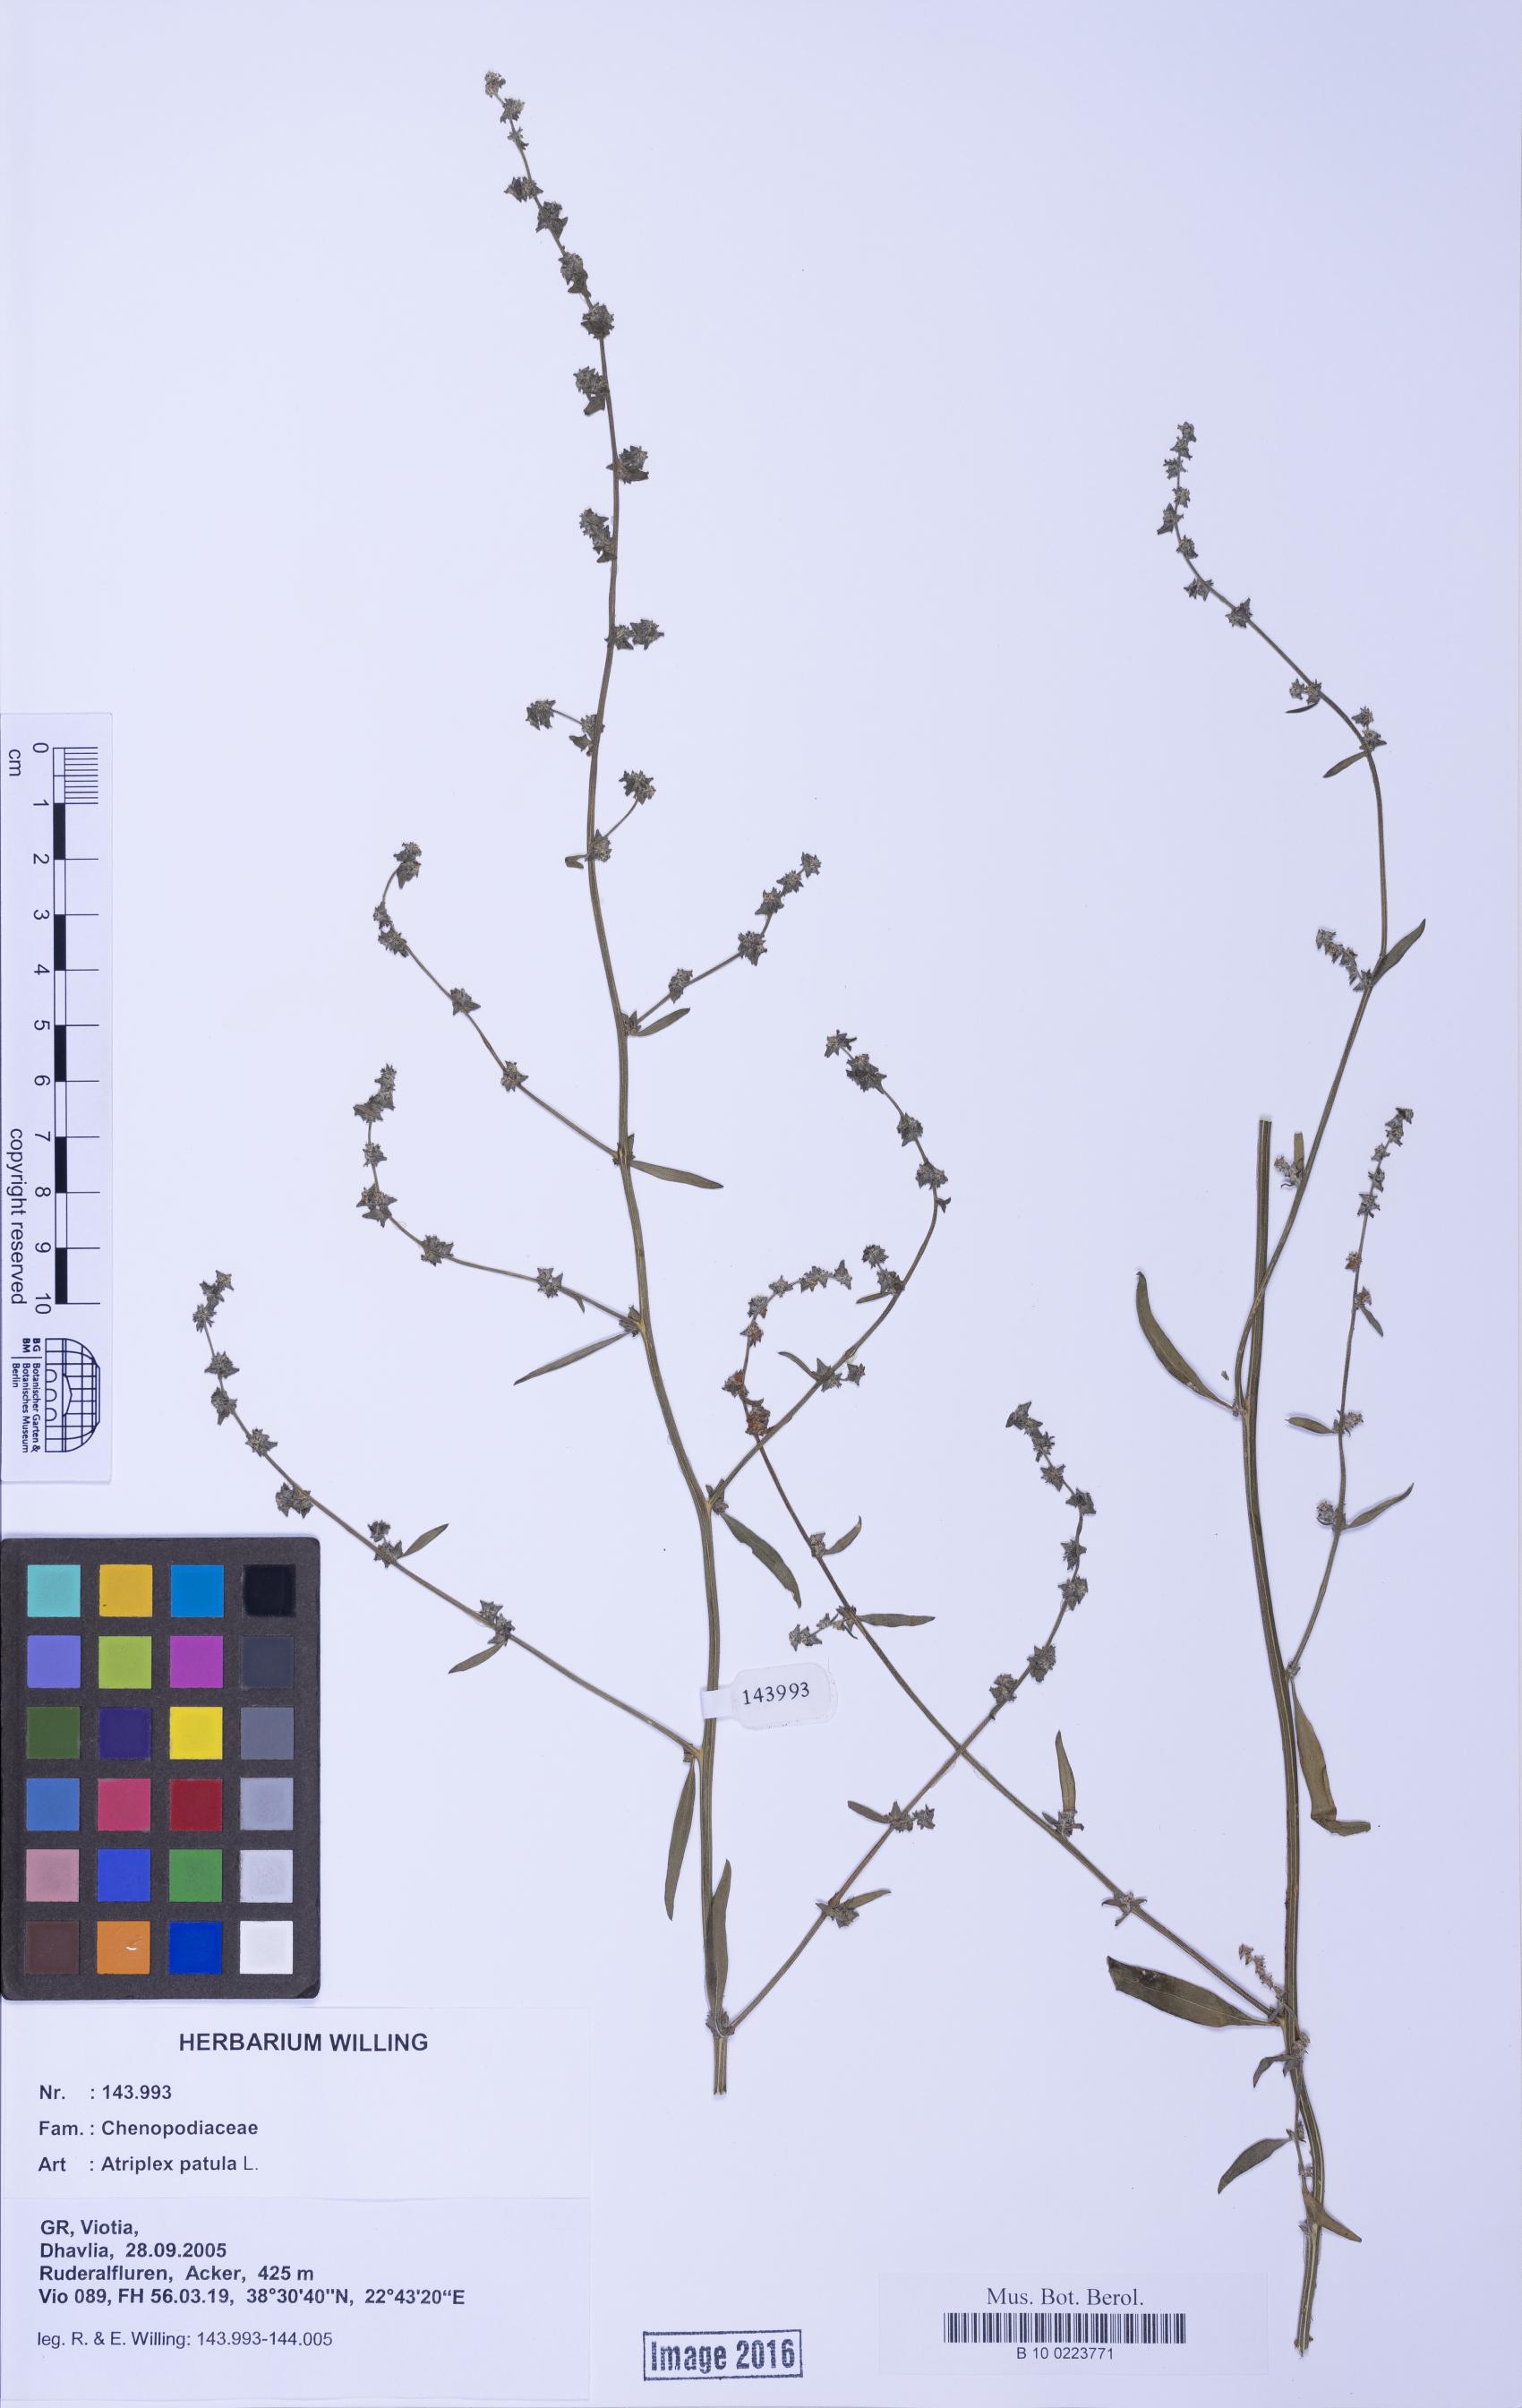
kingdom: Plantae
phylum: Tracheophyta
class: Magnoliopsida
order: Caryophyllales
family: Amaranthaceae
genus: Atriplex
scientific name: Atriplex patula
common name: Common orache
